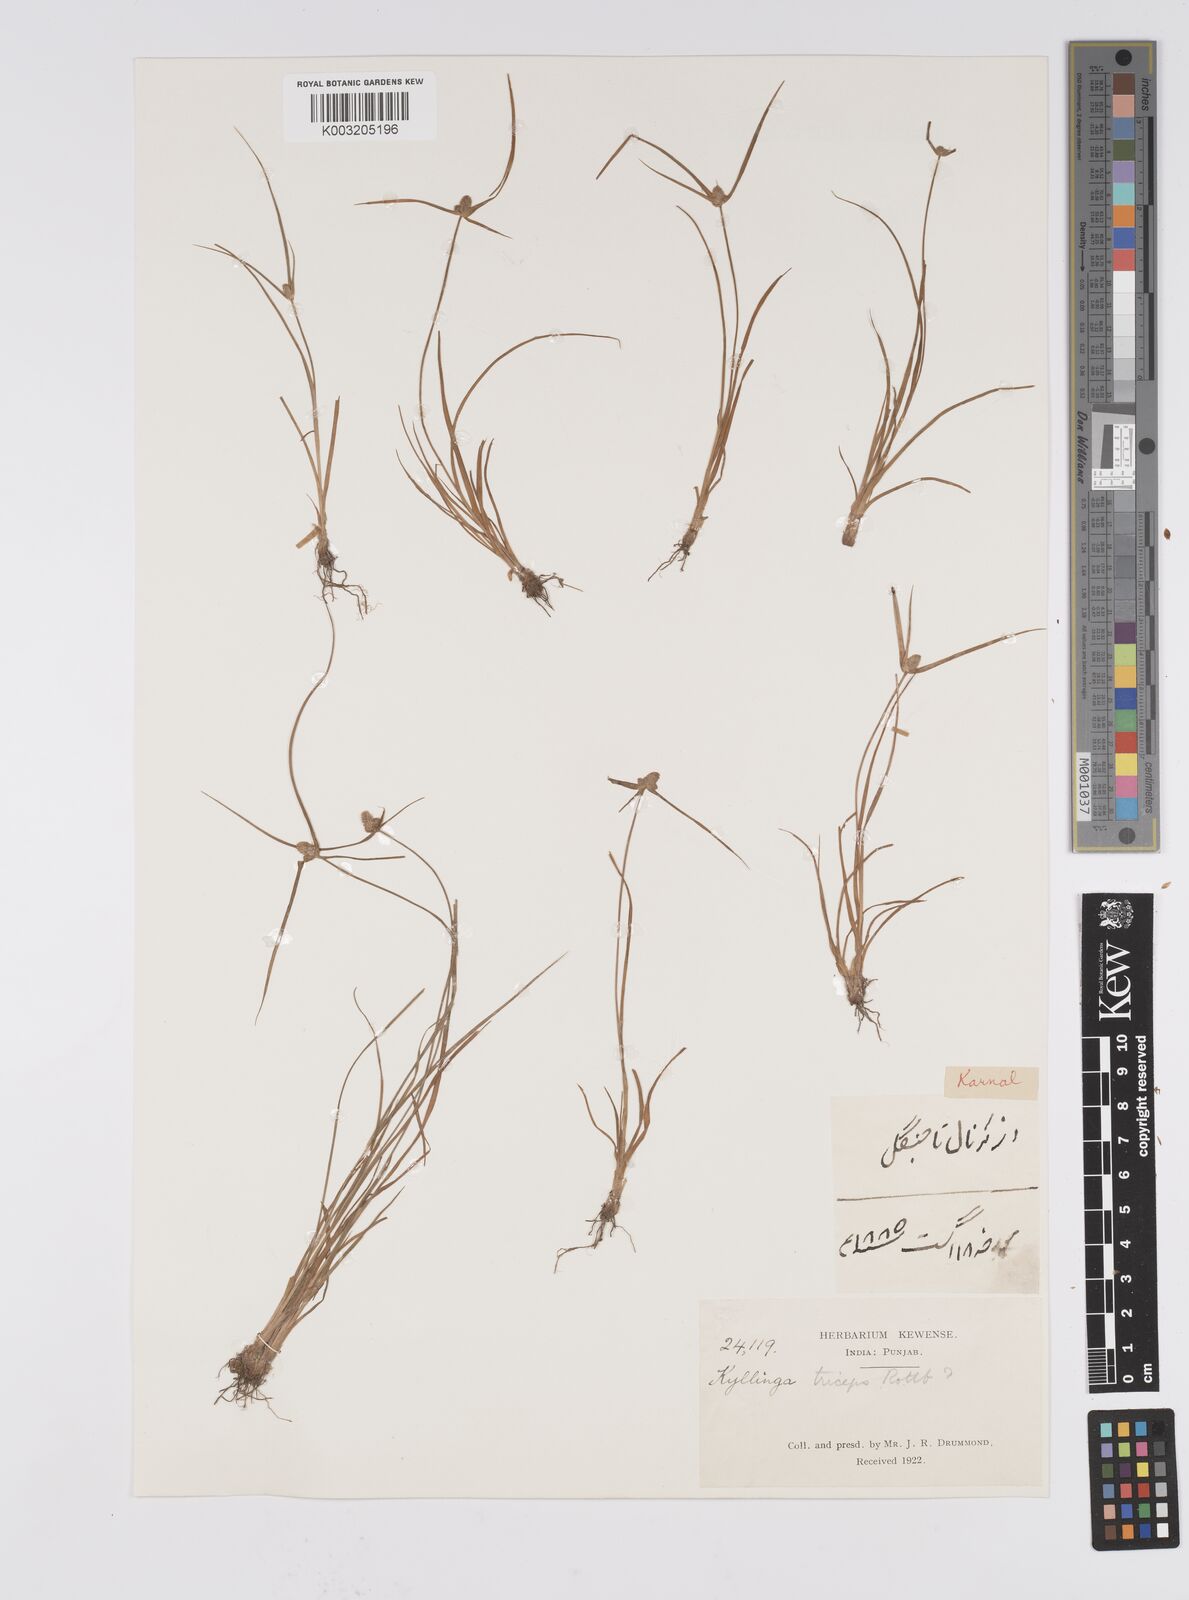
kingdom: Plantae
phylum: Tracheophyta
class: Liliopsida
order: Poales
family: Cyperaceae
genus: Cyperus
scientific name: Cyperus
